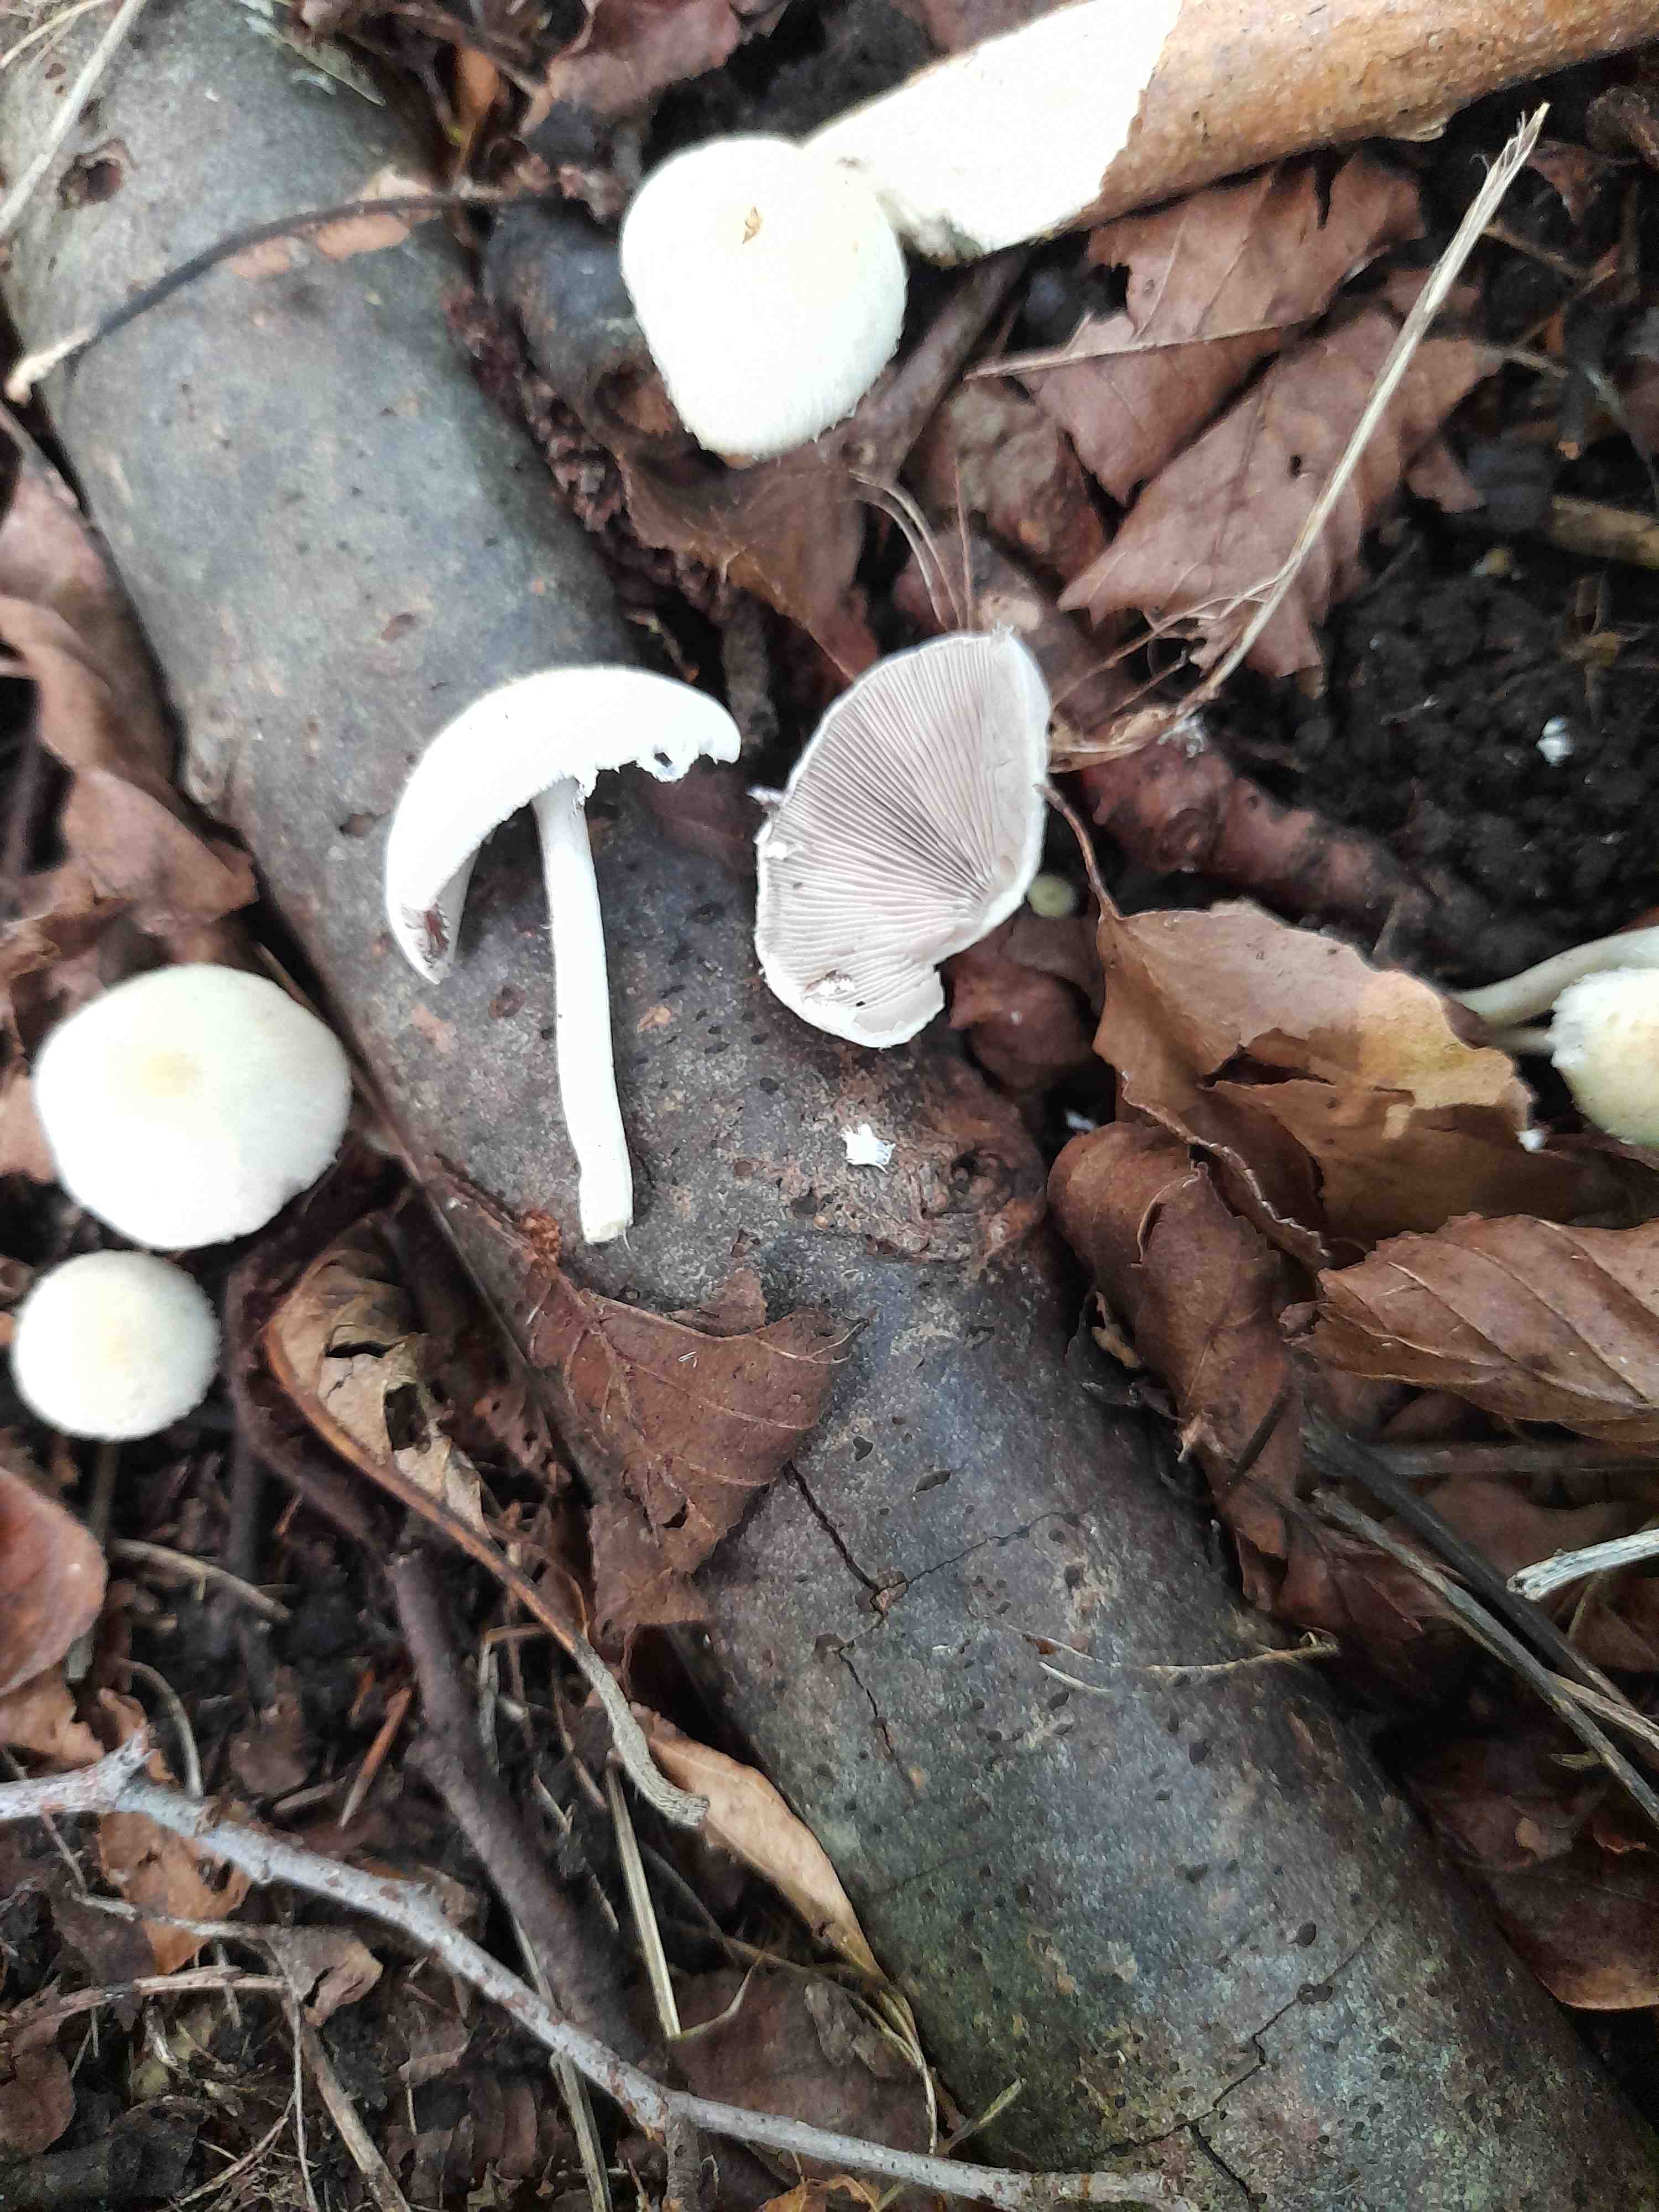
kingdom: Fungi
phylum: Basidiomycota
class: Agaricomycetes
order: Agaricales
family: Psathyrellaceae
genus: Candolleomyces
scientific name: Candolleomyces candolleanus
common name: Candolles mørkhat
